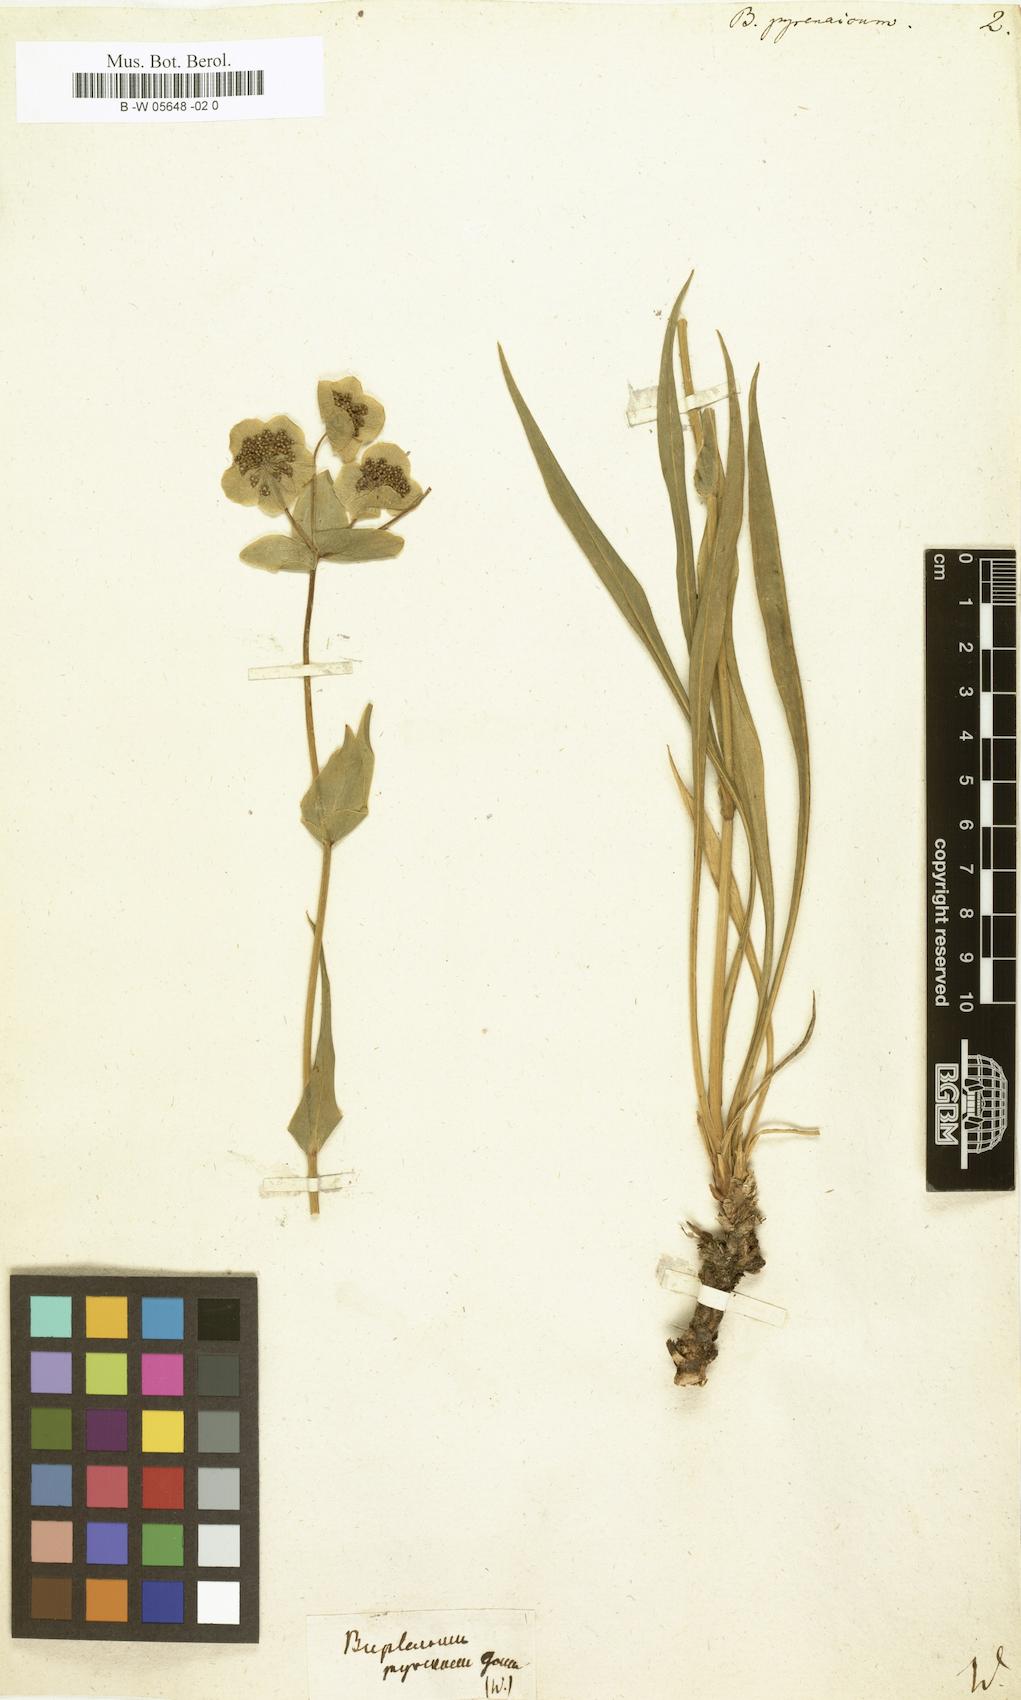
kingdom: Plantae
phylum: Tracheophyta
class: Magnoliopsida
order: Apiales
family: Apiaceae
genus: Bupleurum
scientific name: Bupleurum angulosum
